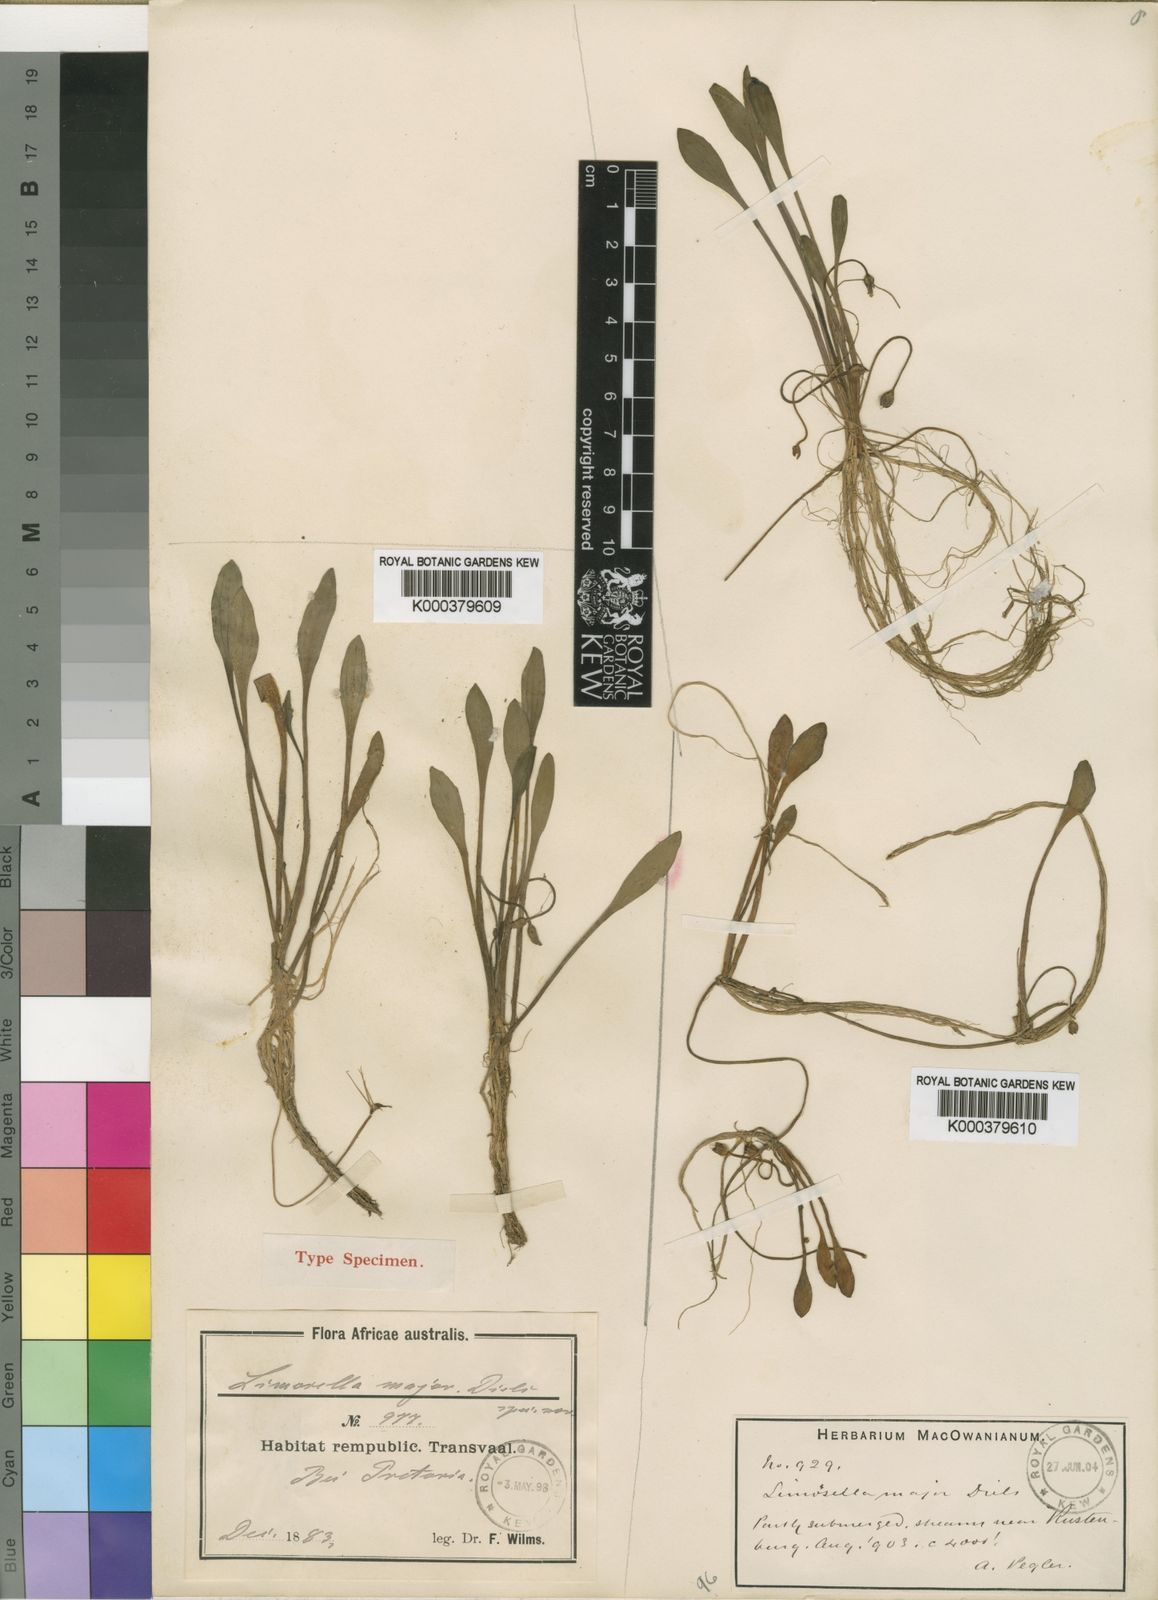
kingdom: Plantae
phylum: Tracheophyta
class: Magnoliopsida
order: Lamiales
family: Scrophulariaceae
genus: Limosella
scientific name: Limosella major
